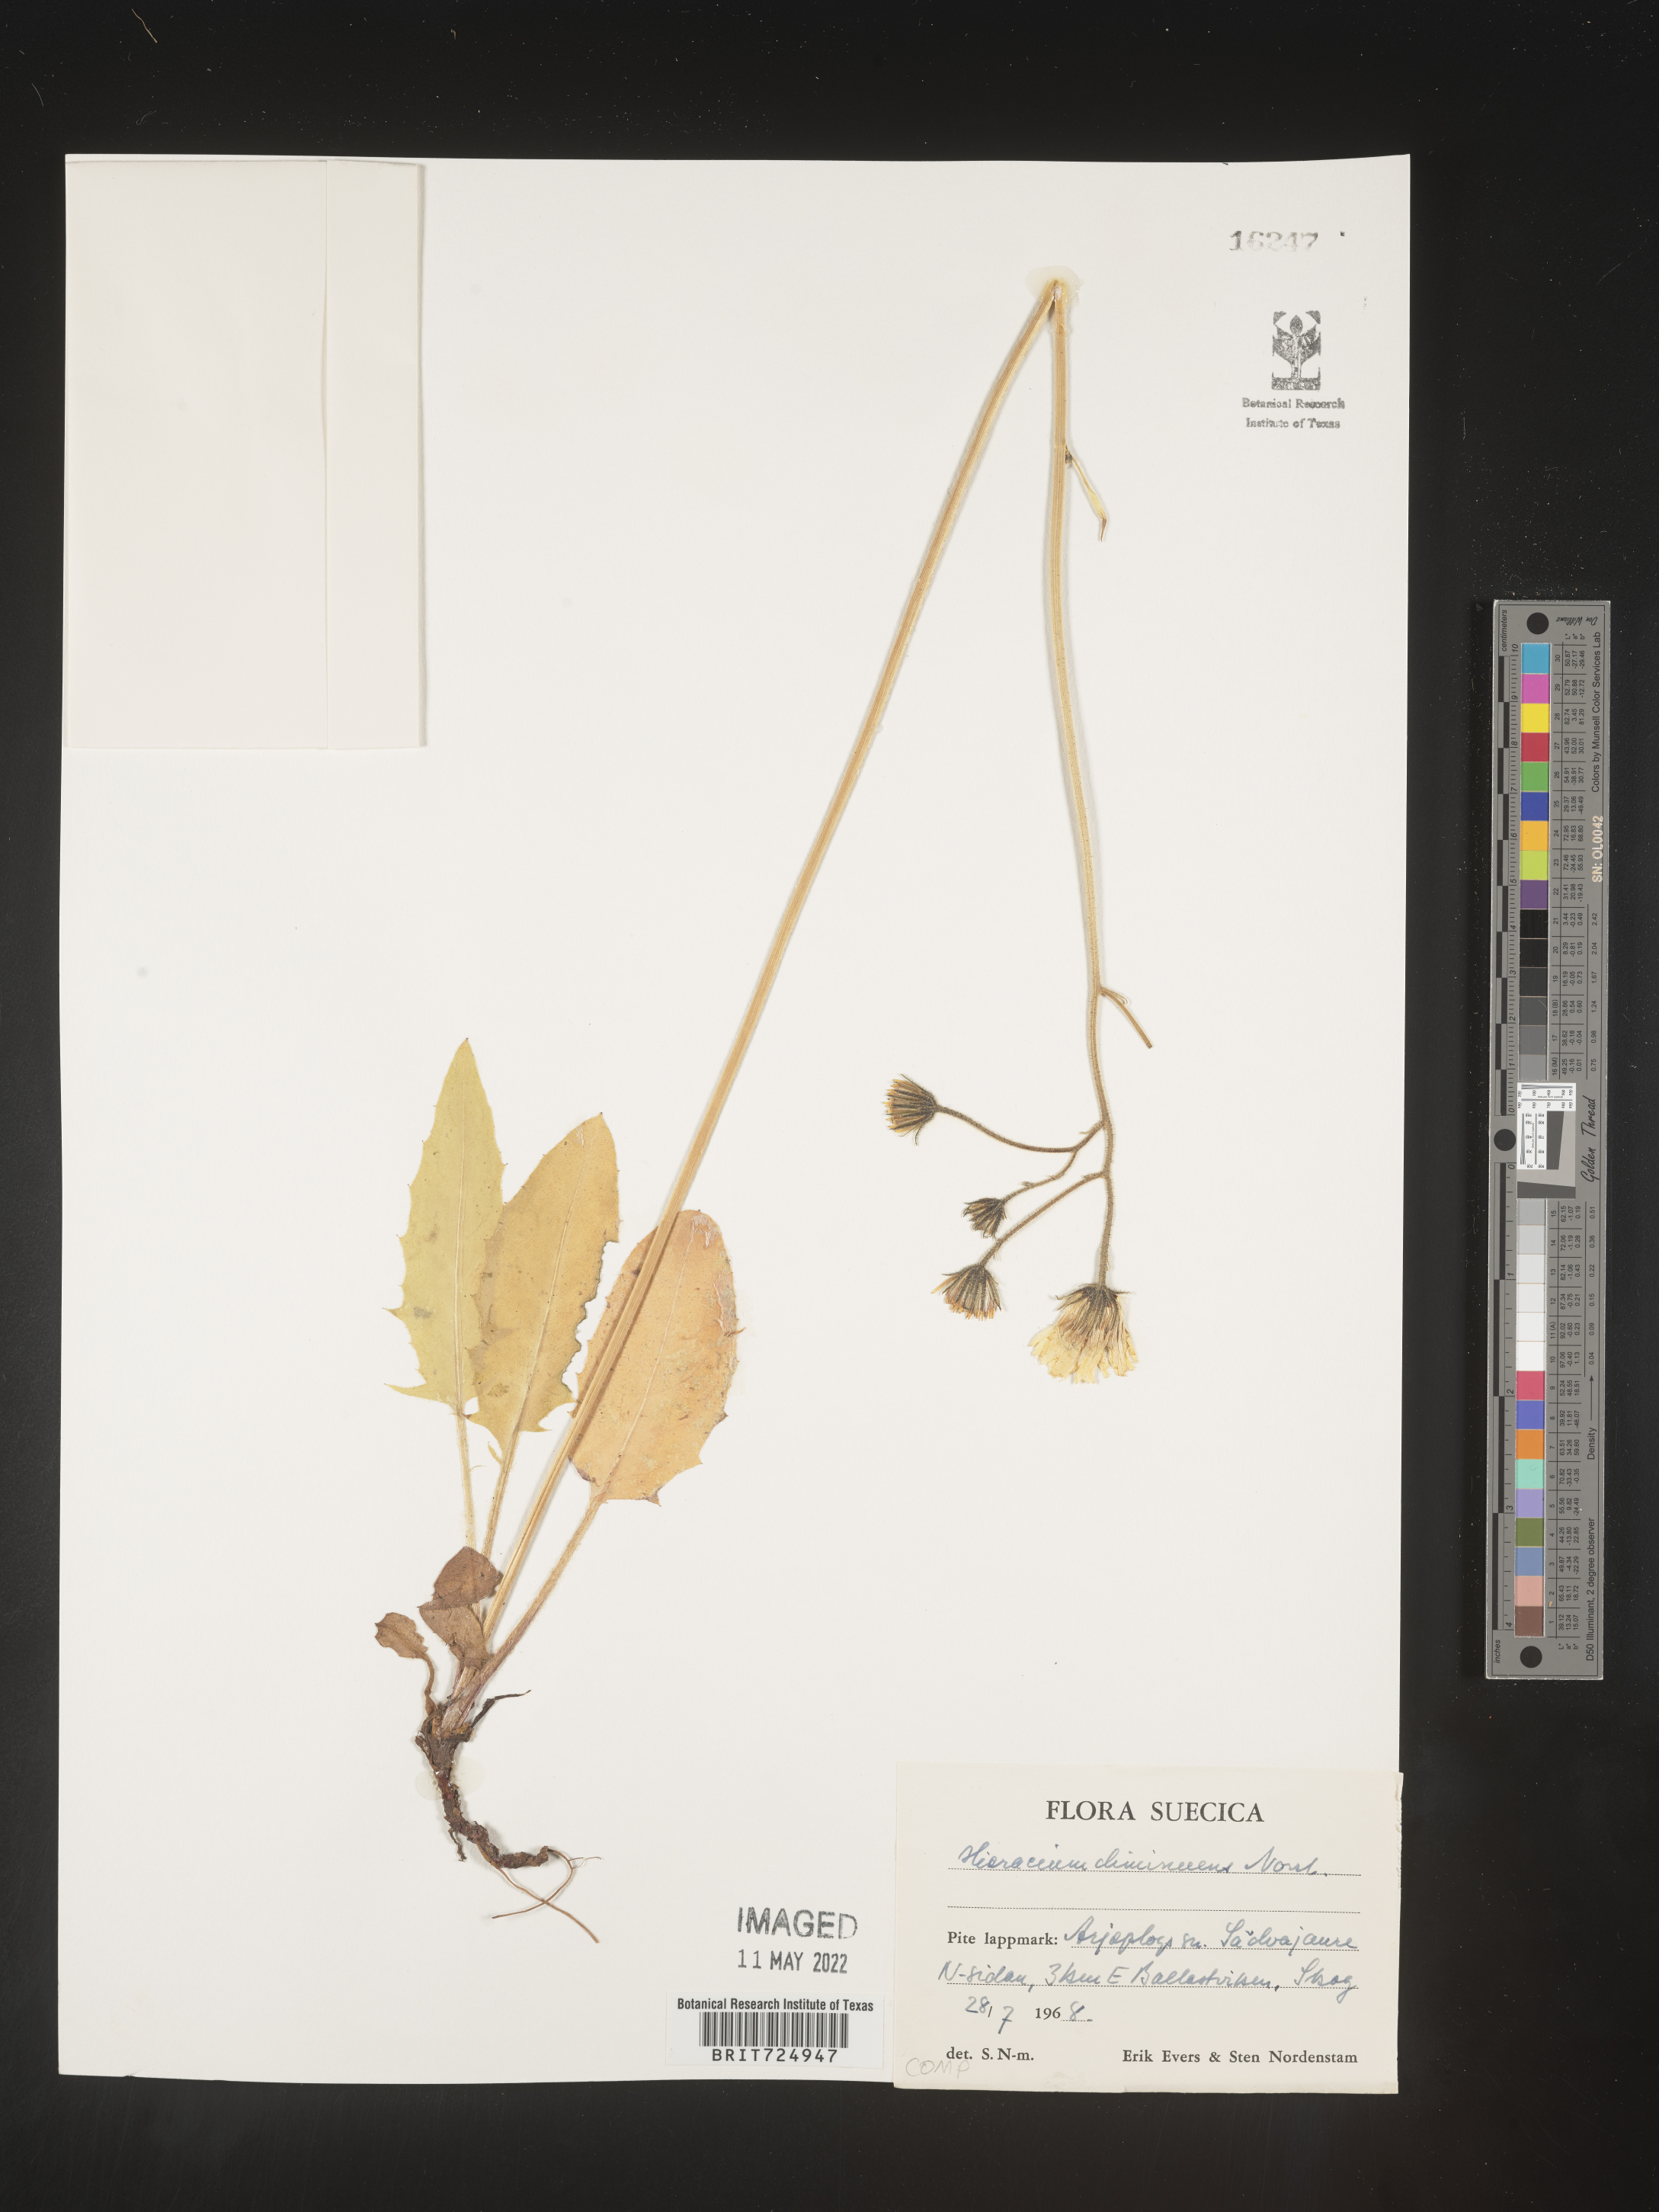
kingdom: Plantae
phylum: Tracheophyta
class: Magnoliopsida
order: Asterales
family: Asteraceae
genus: Hieracium
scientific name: Hieracium
